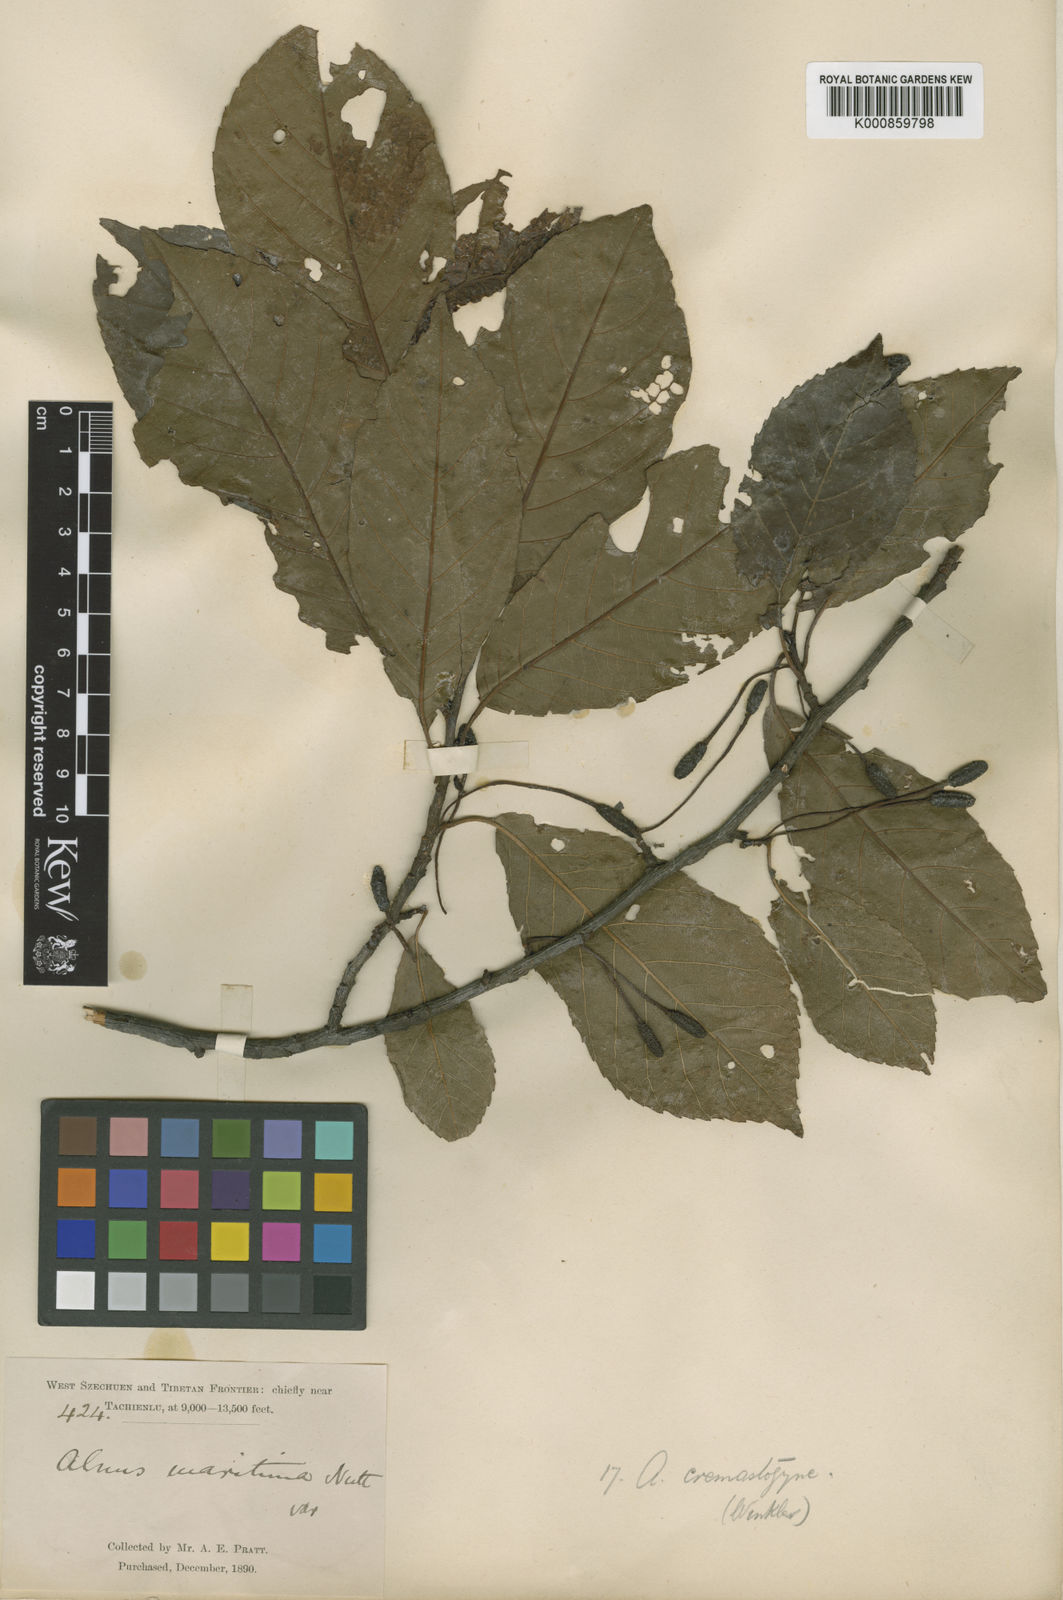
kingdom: Plantae
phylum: Tracheophyta
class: Magnoliopsida
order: Fagales
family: Betulaceae
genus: Alnus
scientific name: Alnus cremastogyne
